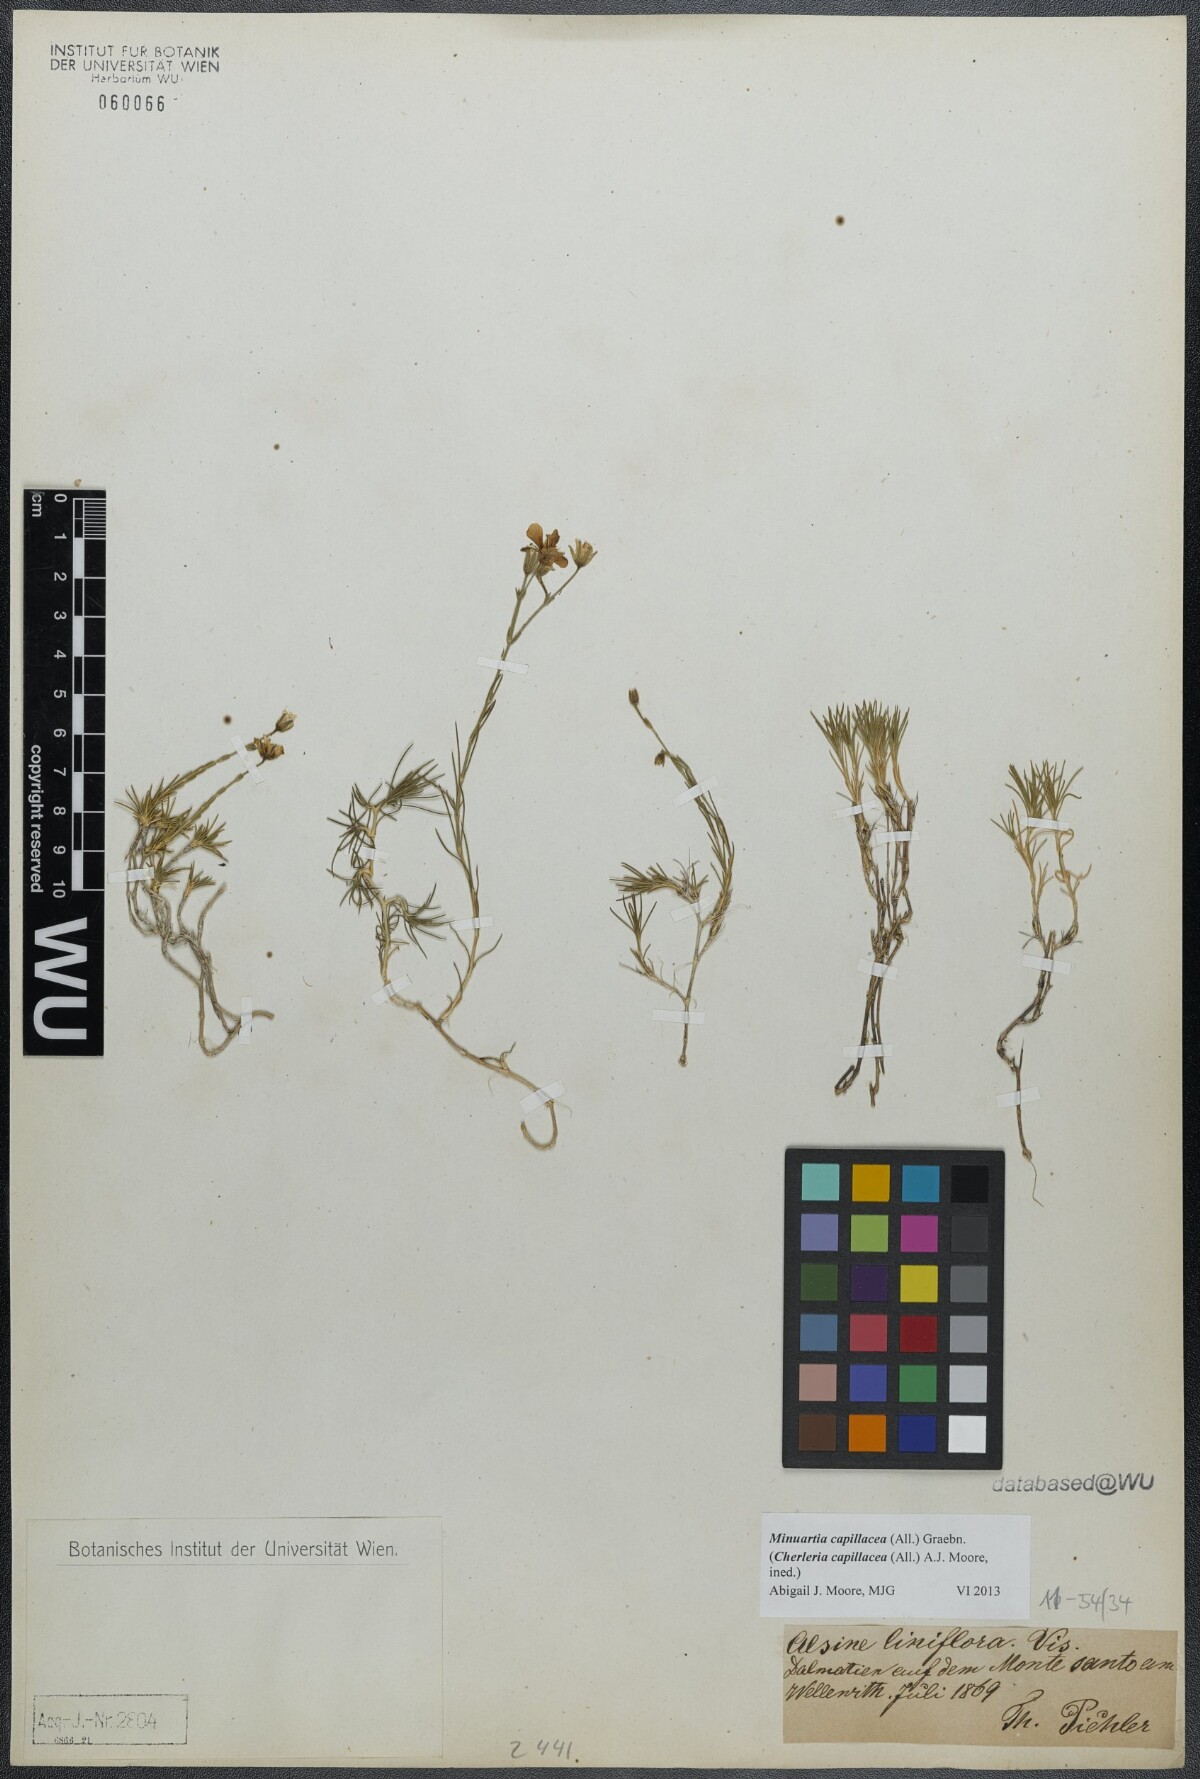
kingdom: Plantae
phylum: Tracheophyta
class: Magnoliopsida
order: Caryophyllales
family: Caryophyllaceae
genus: Cherleria
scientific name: Cherleria capillacea
